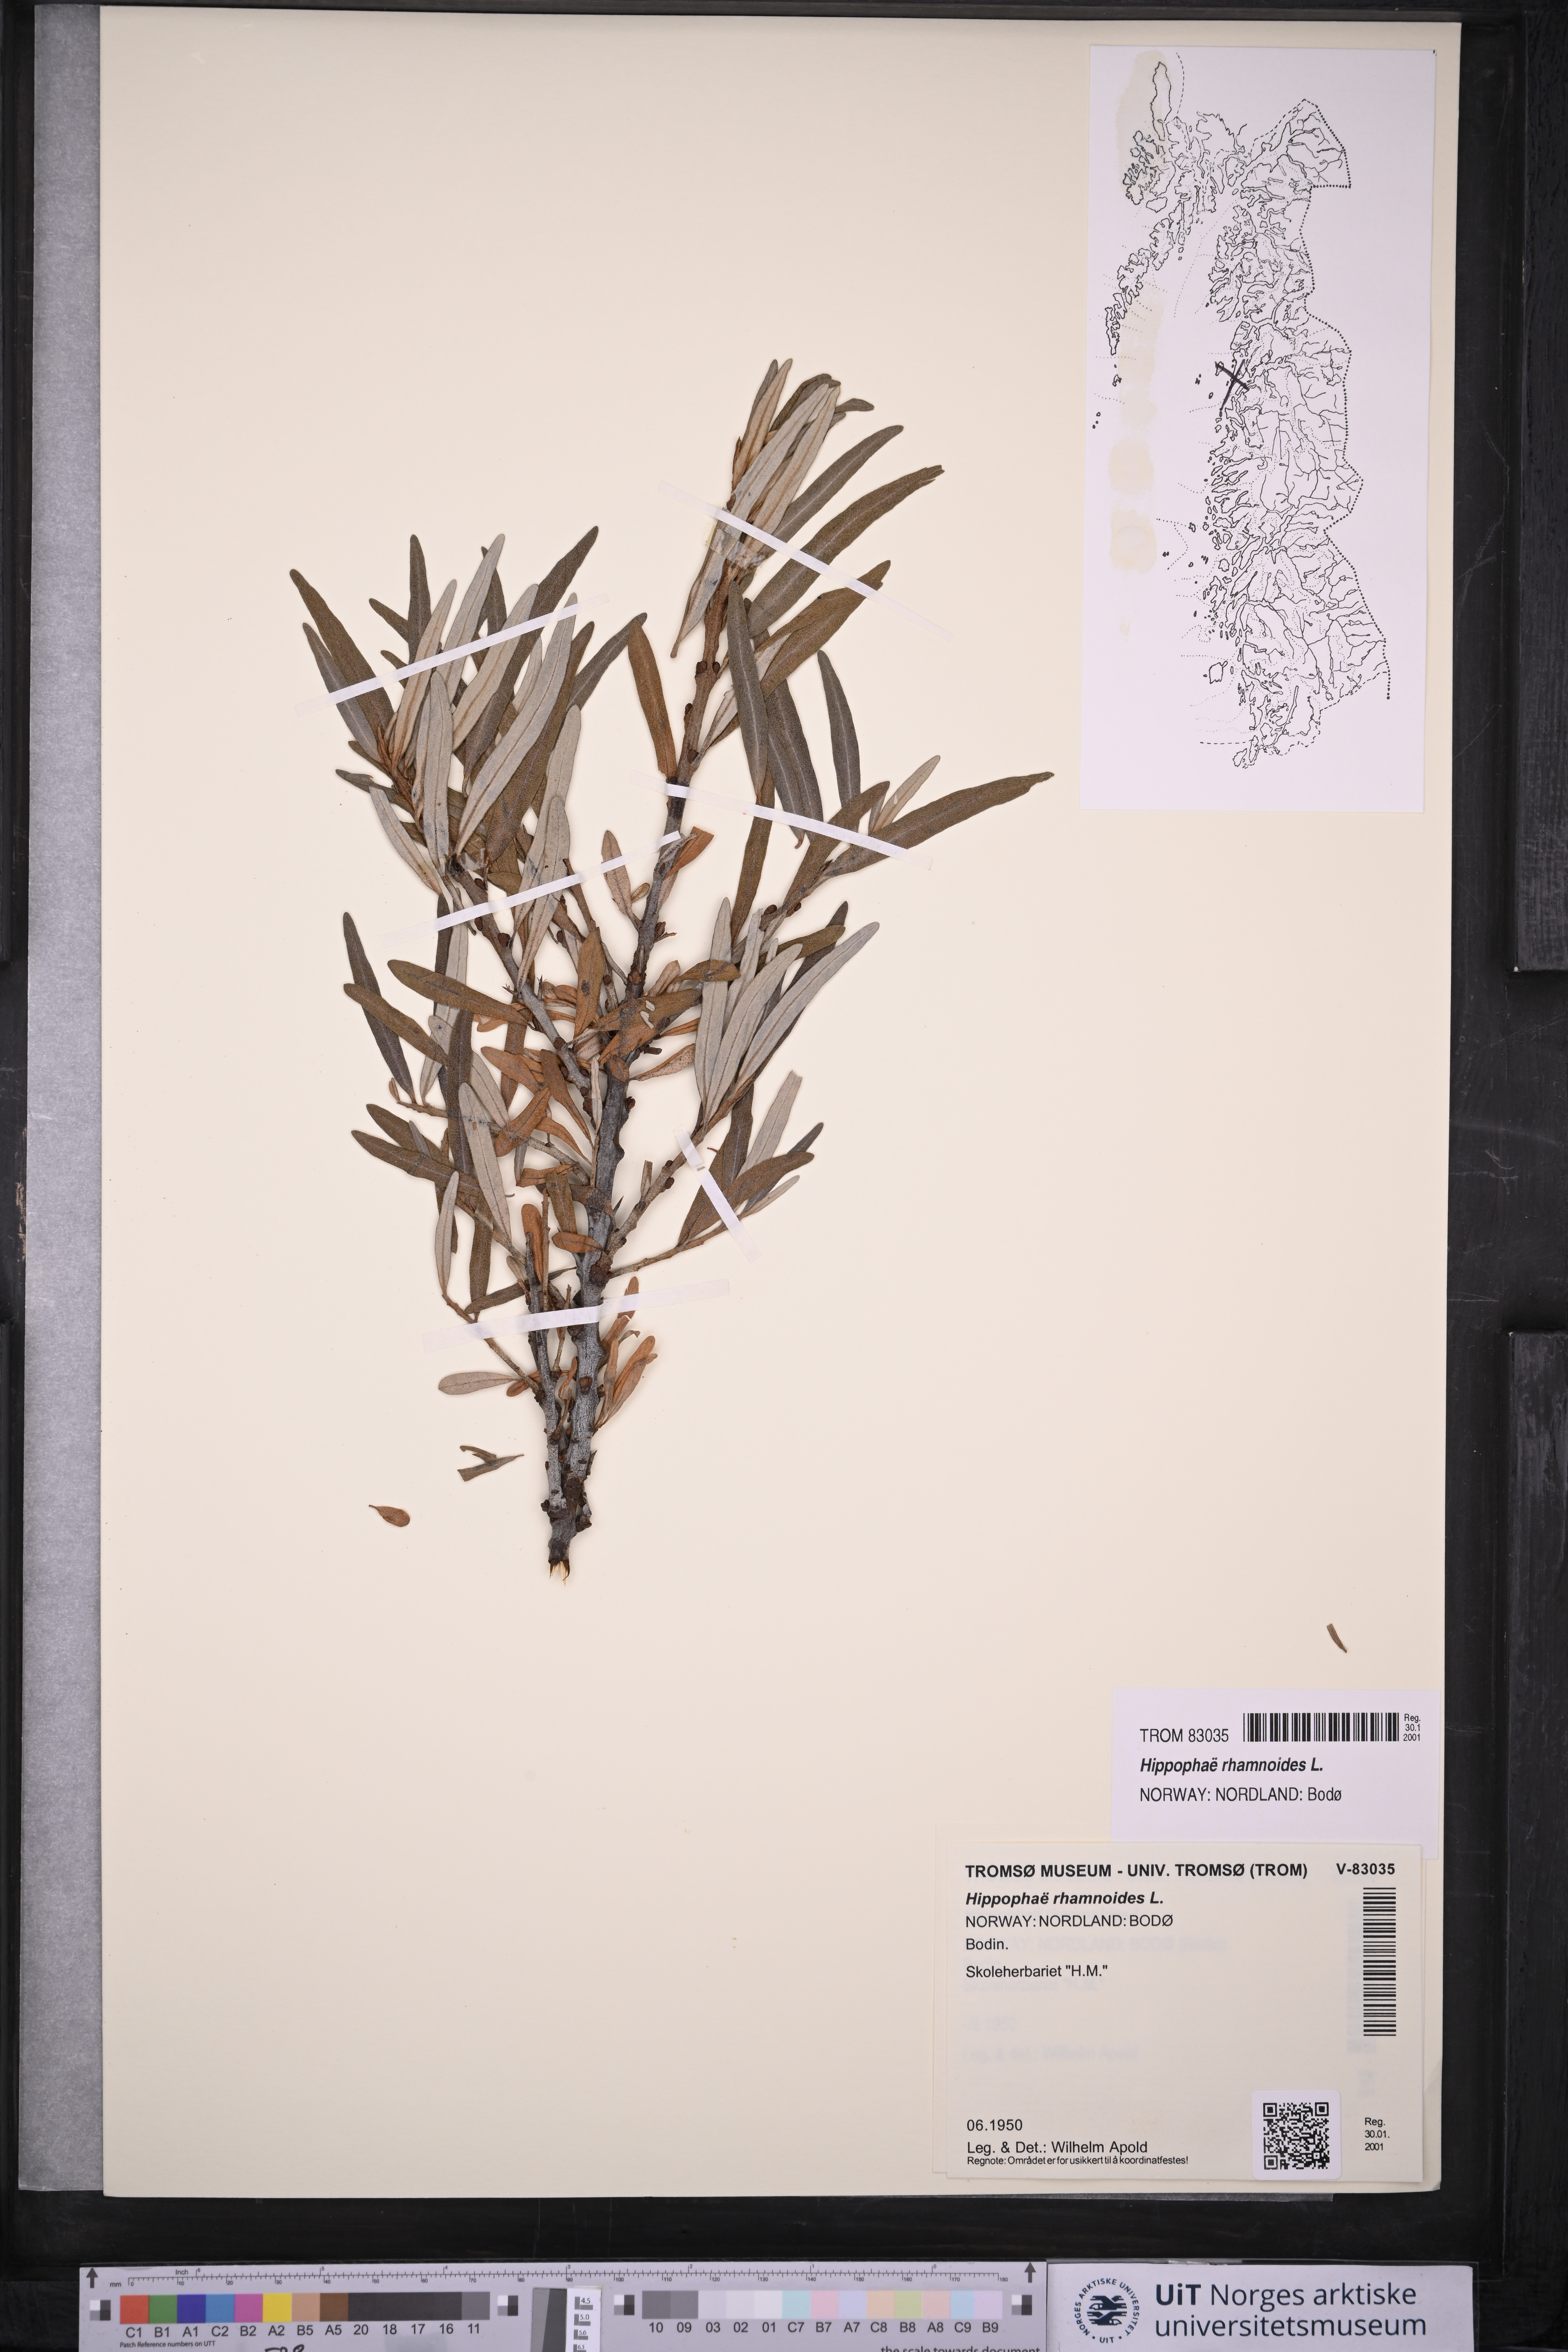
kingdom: Plantae
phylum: Tracheophyta
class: Magnoliopsida
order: Rosales
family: Elaeagnaceae
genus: Hippophae
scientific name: Hippophae rhamnoides
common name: Sea-buckthorn
